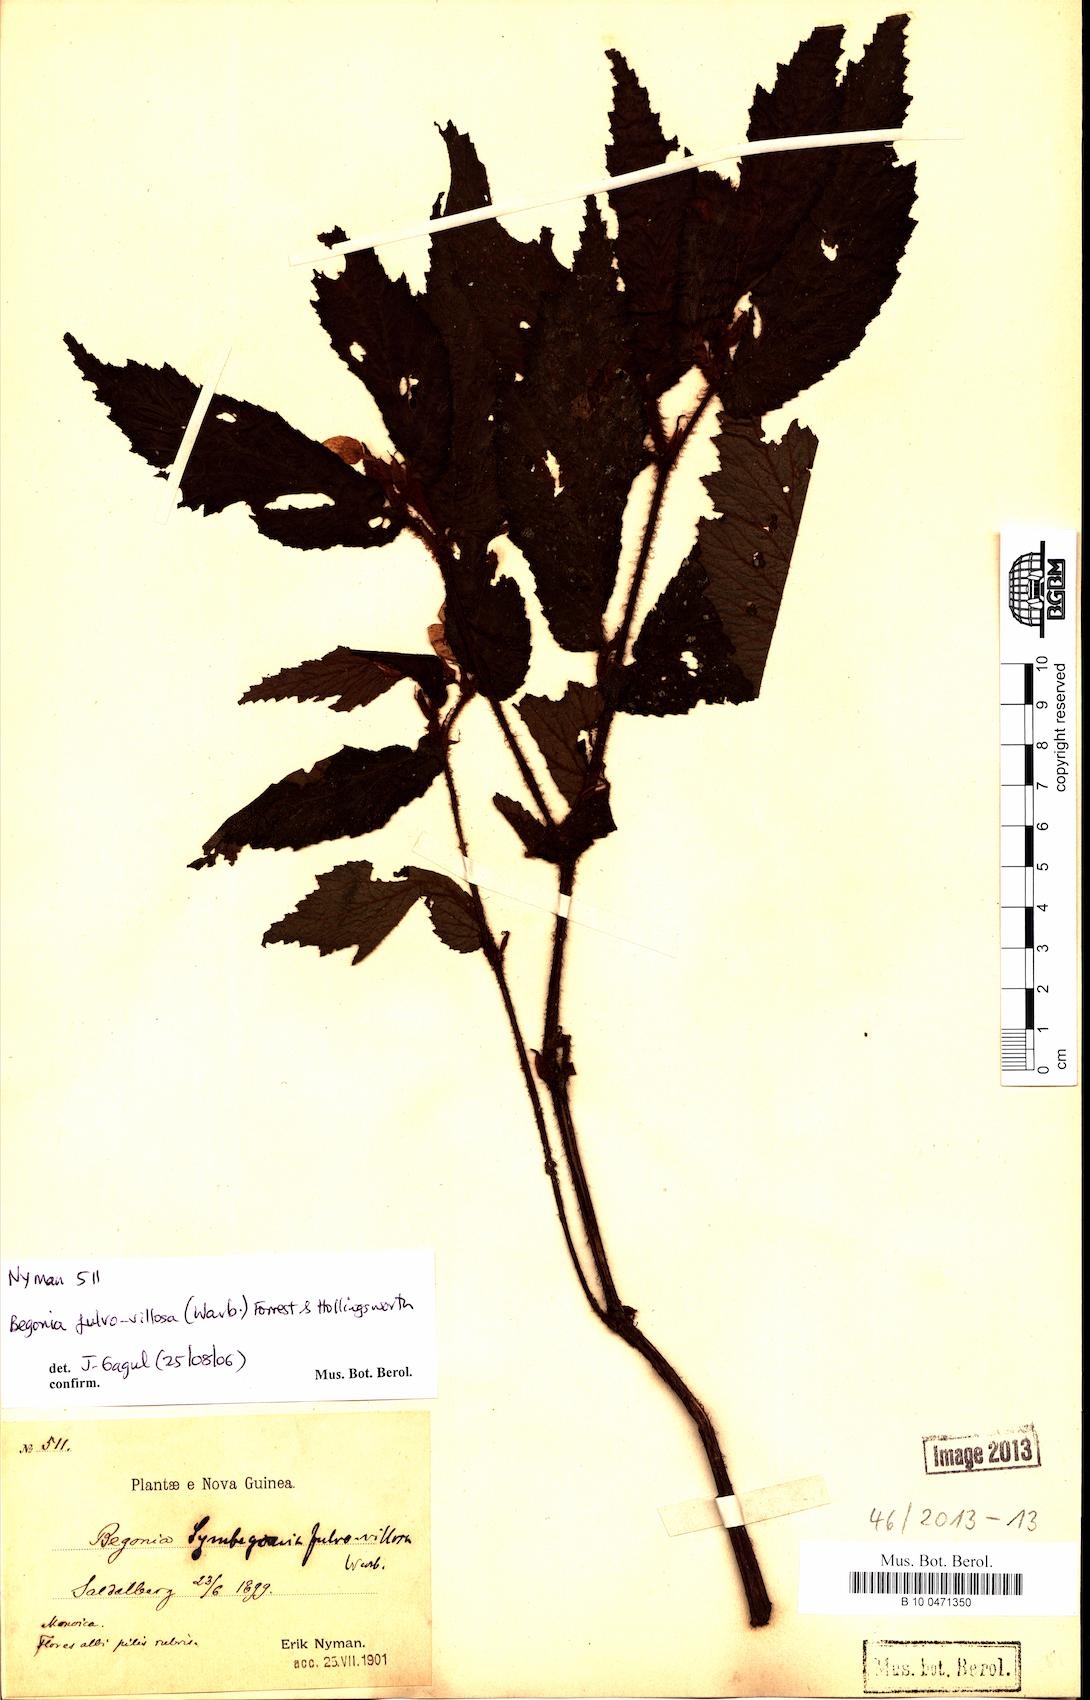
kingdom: Plantae
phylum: Tracheophyta
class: Magnoliopsida
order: Cucurbitales
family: Begoniaceae
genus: Begonia
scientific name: Begonia fulvovillosa
